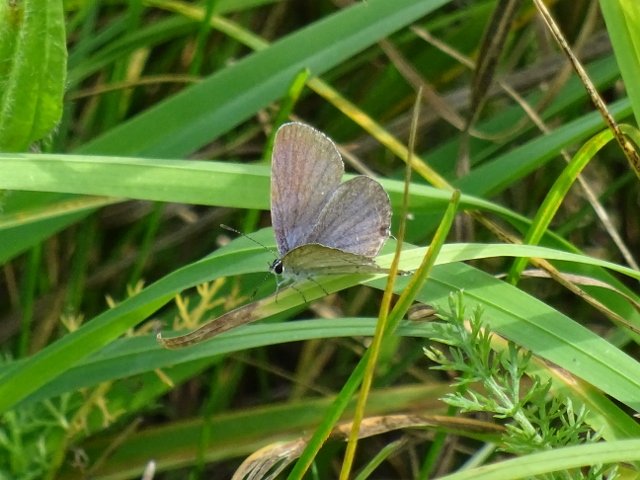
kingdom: Animalia
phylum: Arthropoda
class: Insecta
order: Lepidoptera
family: Lycaenidae
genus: Elkalyce
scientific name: Elkalyce comyntas
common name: Eastern Tailed-Blue
